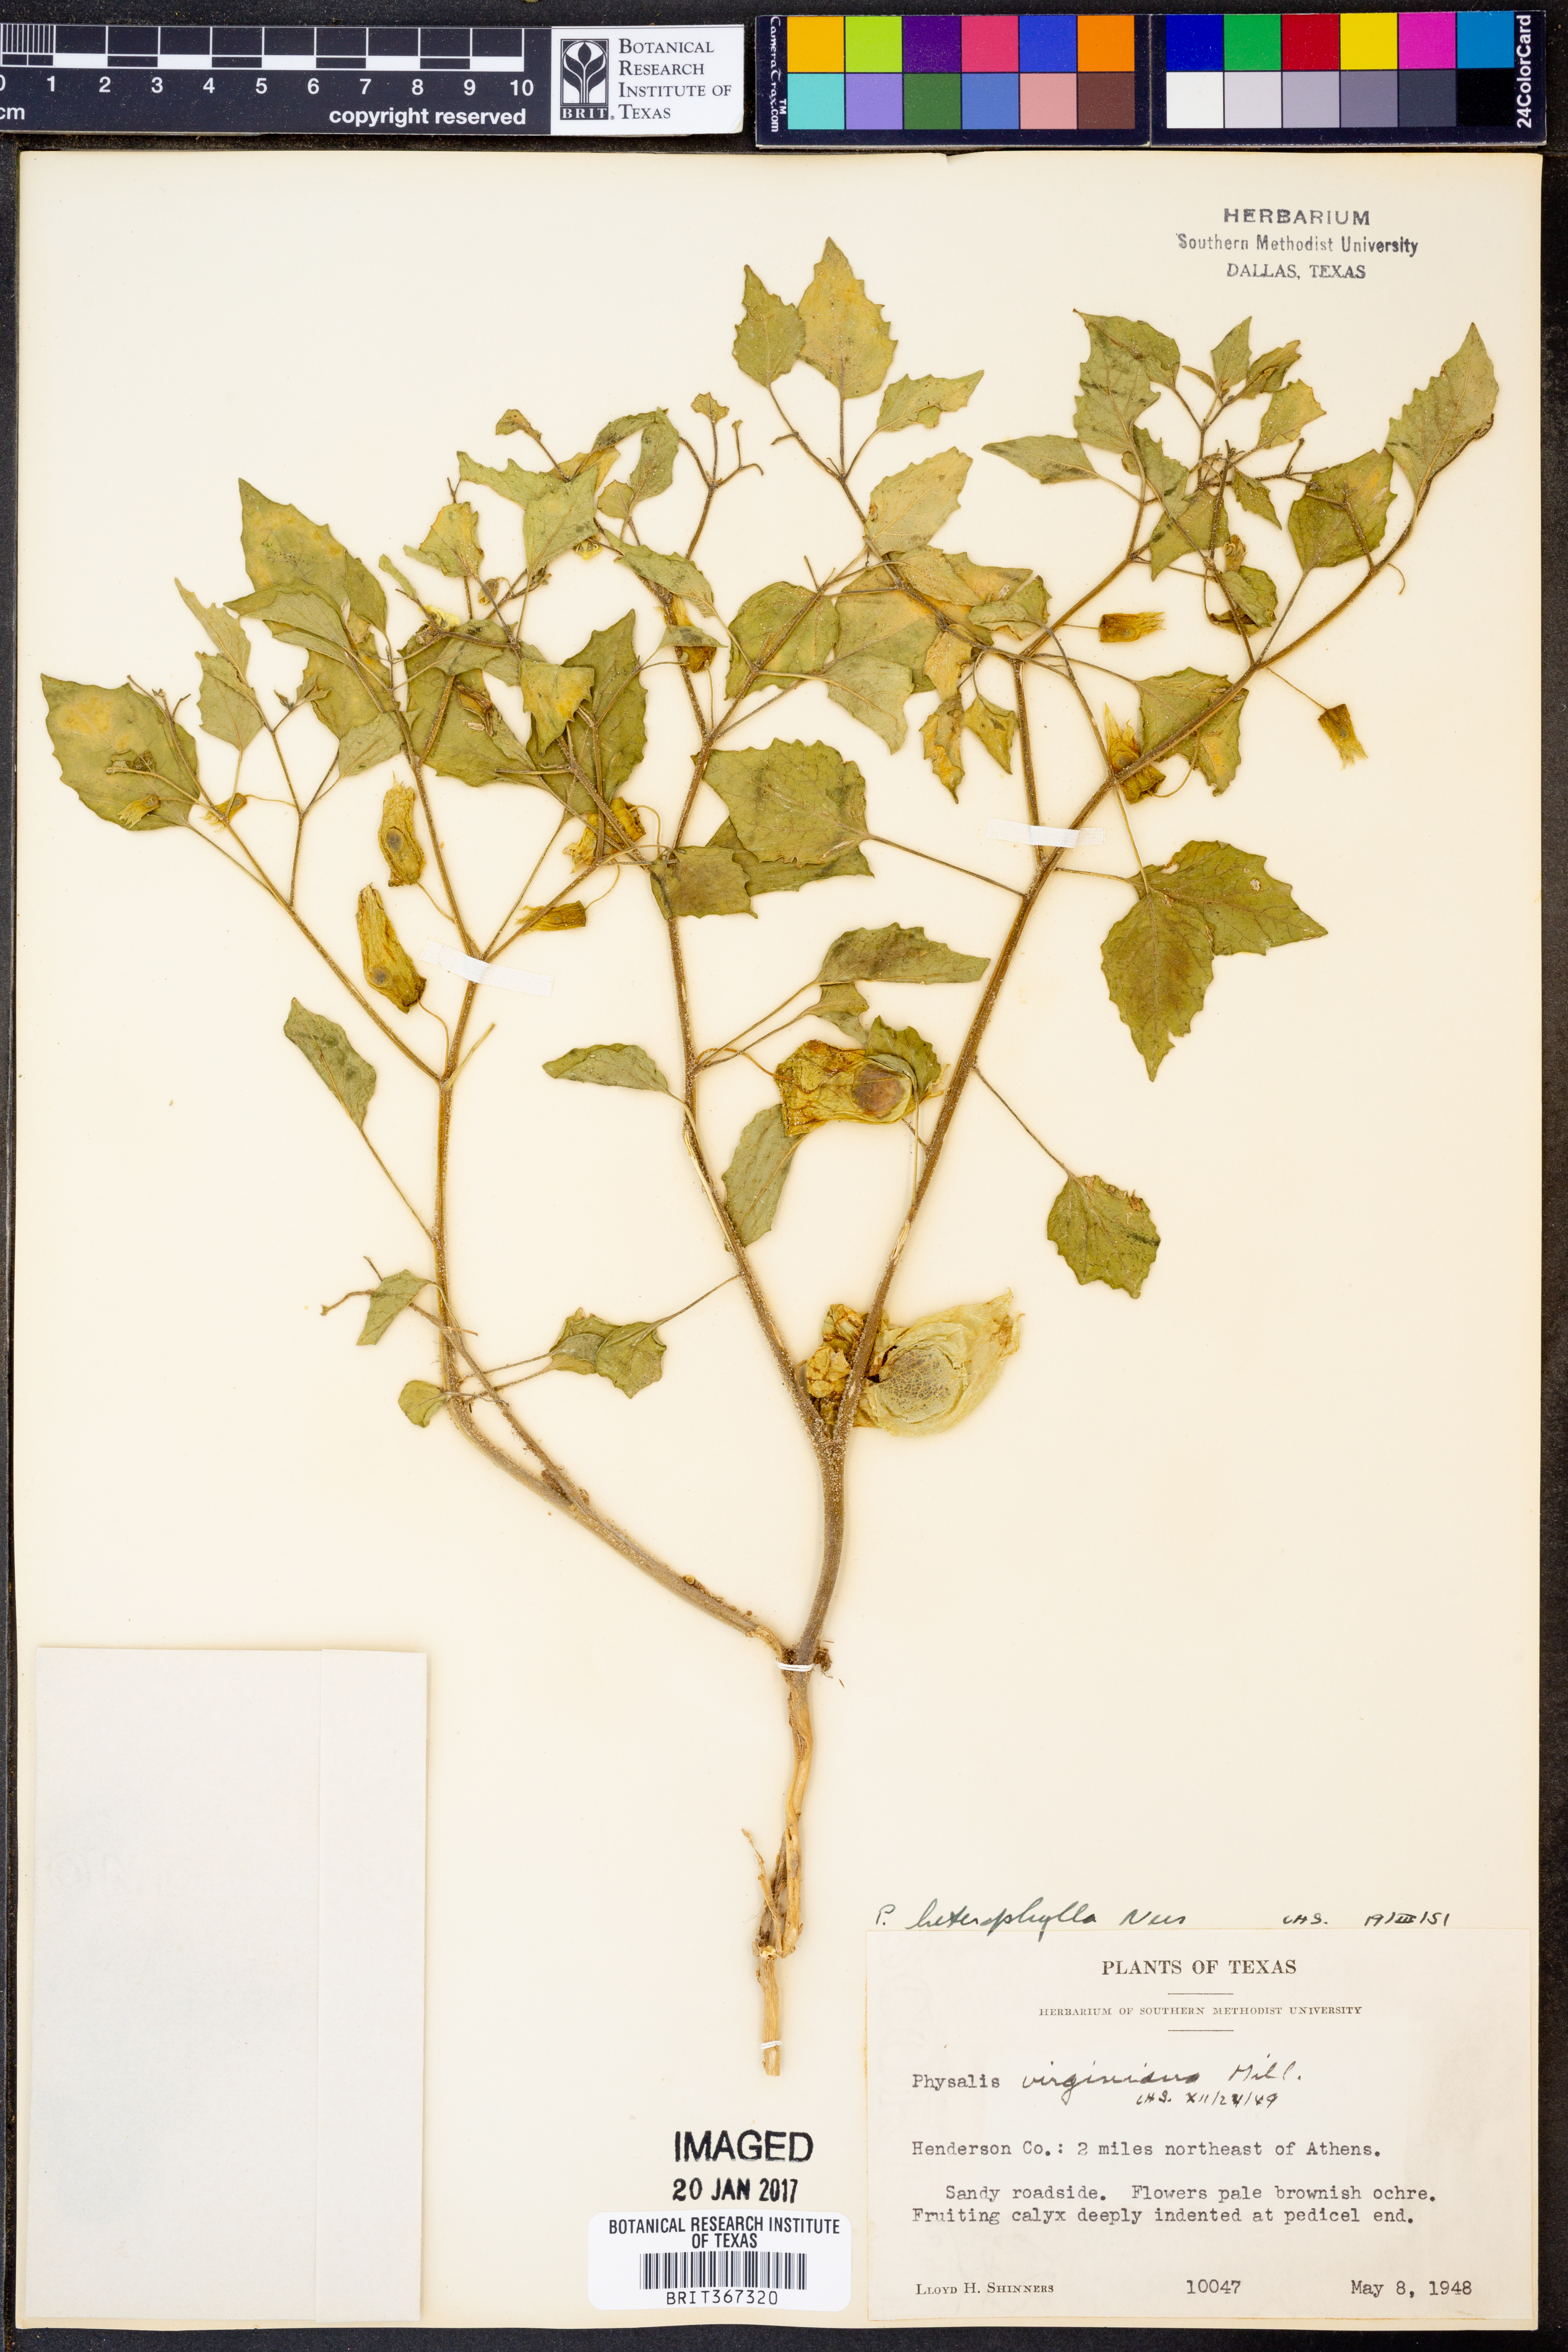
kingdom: Plantae
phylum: Tracheophyta
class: Magnoliopsida
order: Solanales
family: Solanaceae
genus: Physalis
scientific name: Physalis macrosperma
